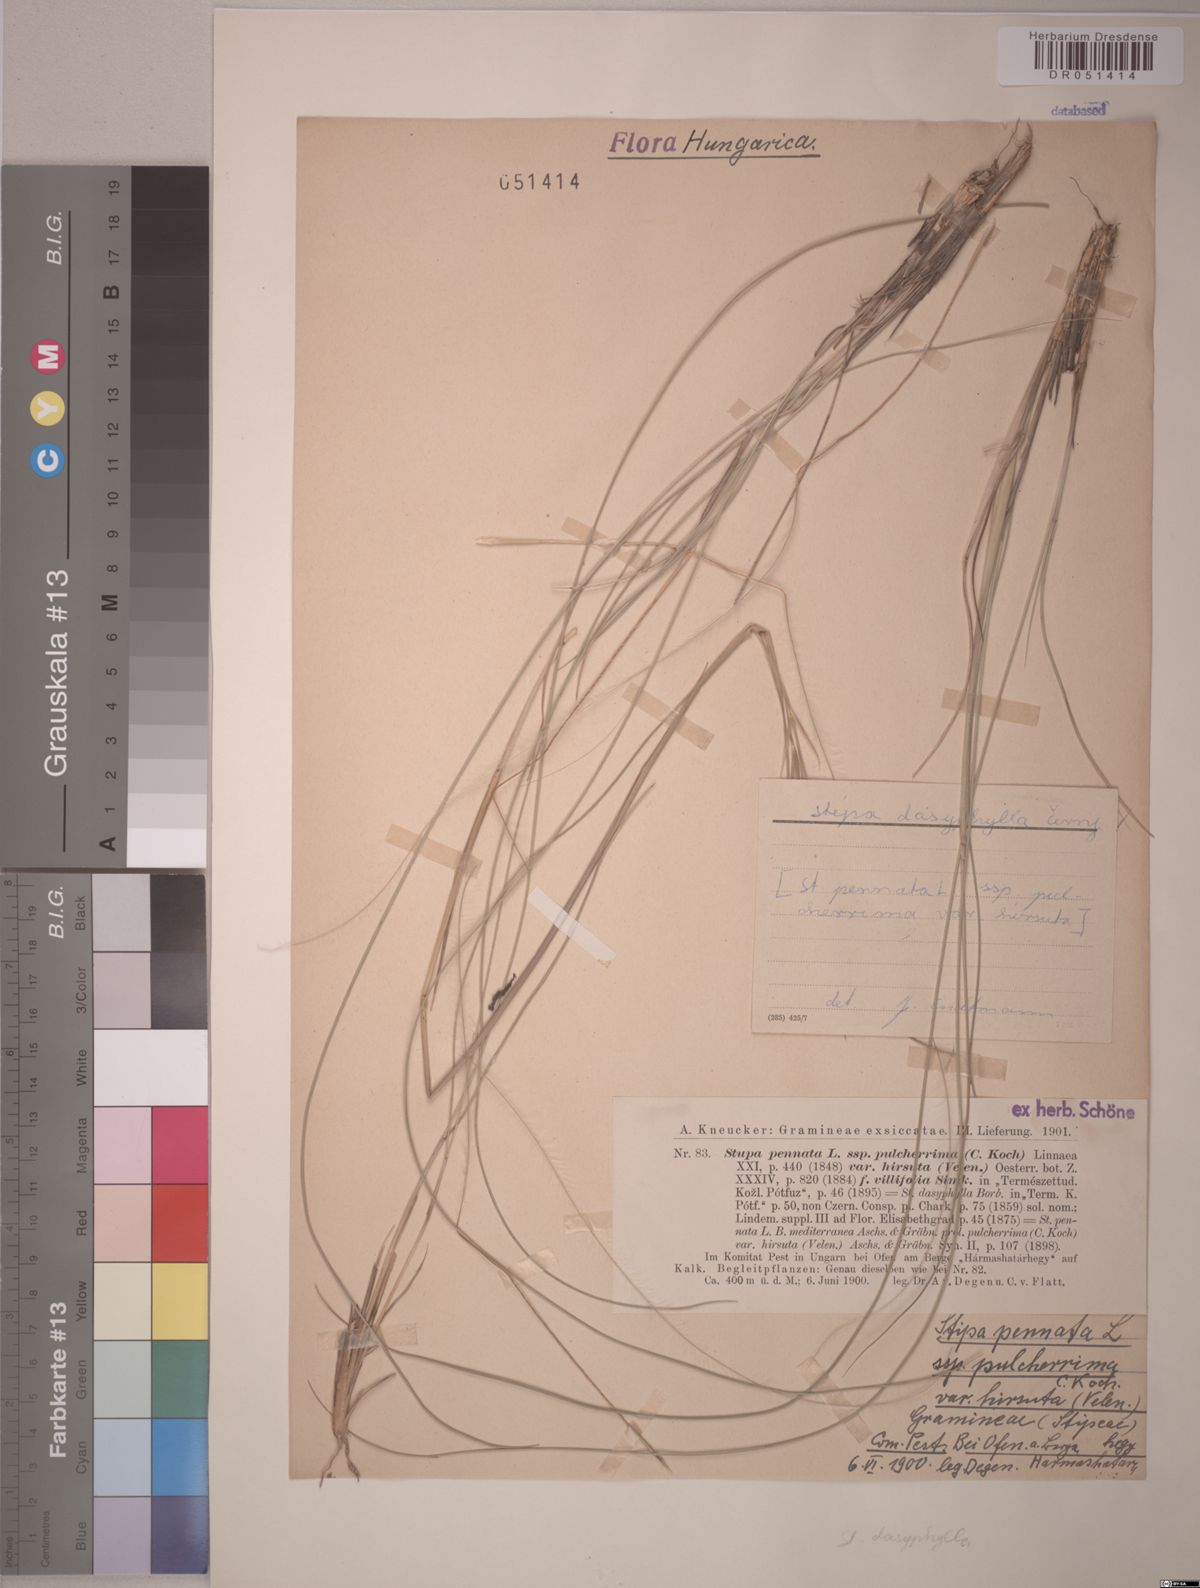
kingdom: Plantae
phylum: Tracheophyta
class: Liliopsida
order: Poales
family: Poaceae
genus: Stipa
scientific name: Stipa dasyphylla
